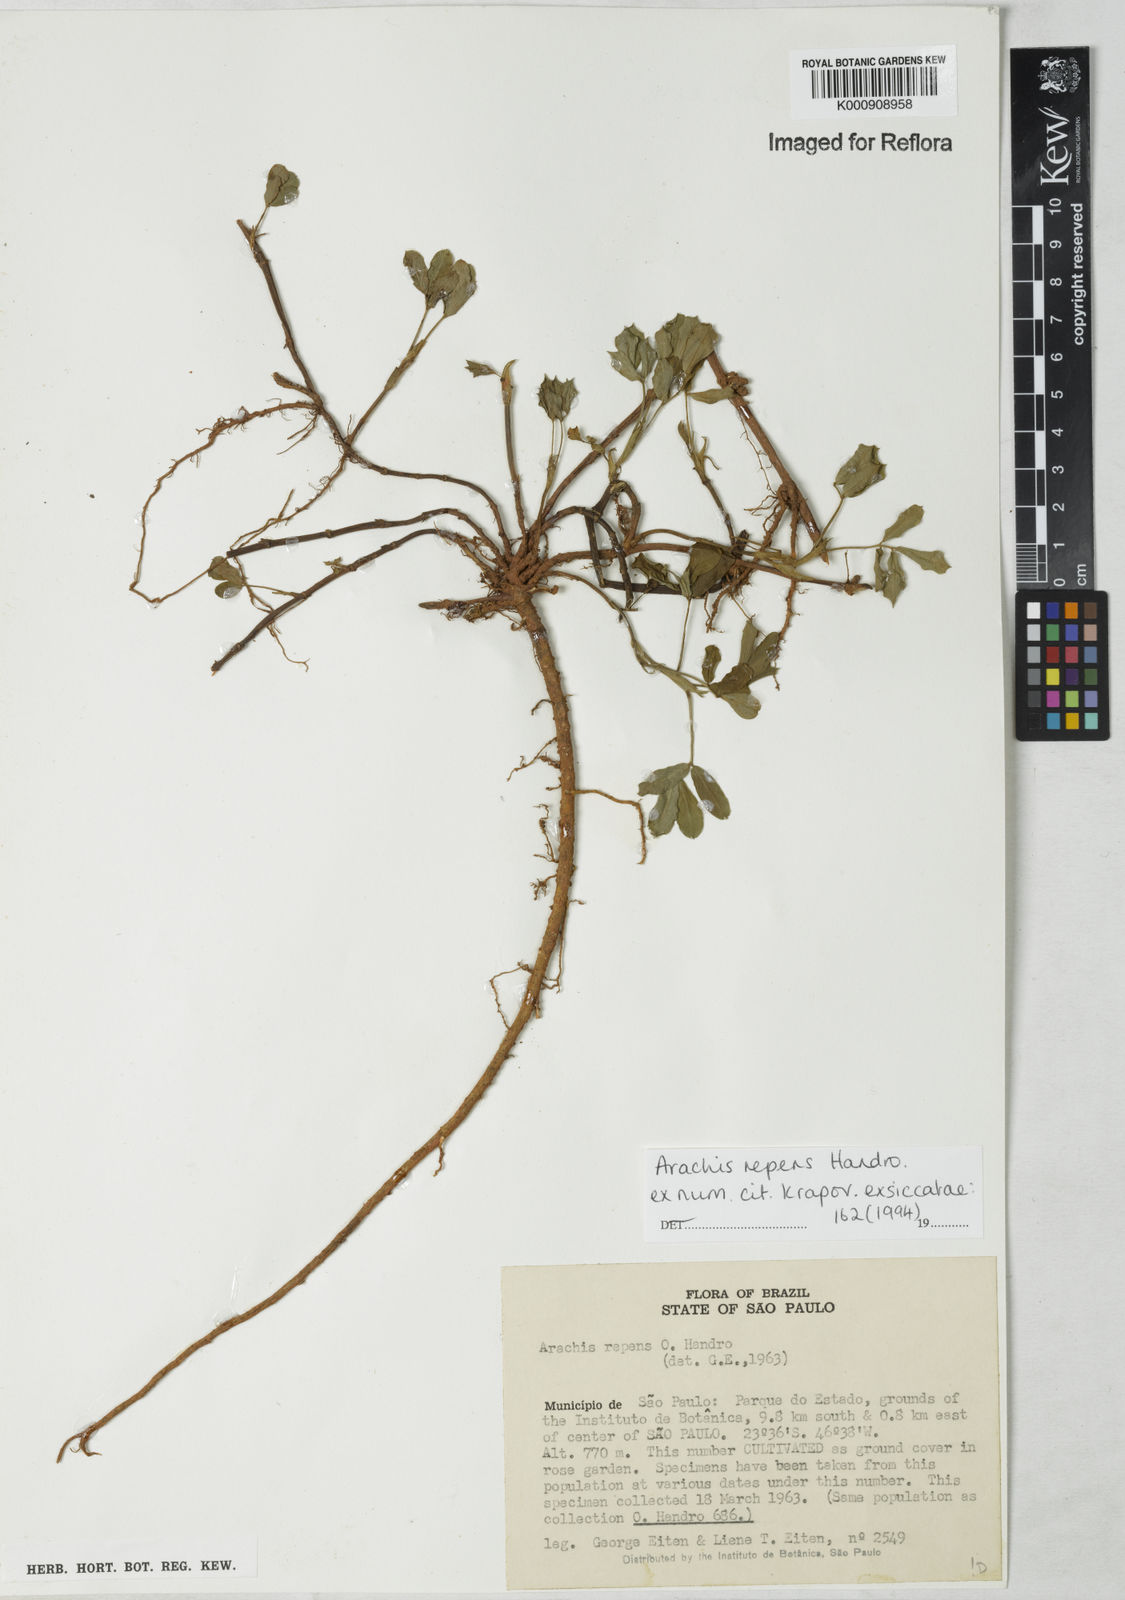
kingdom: Plantae
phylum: Tracheophyta
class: Magnoliopsida
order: Fabales
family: Fabaceae
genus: Arachis
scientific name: Arachis repens
